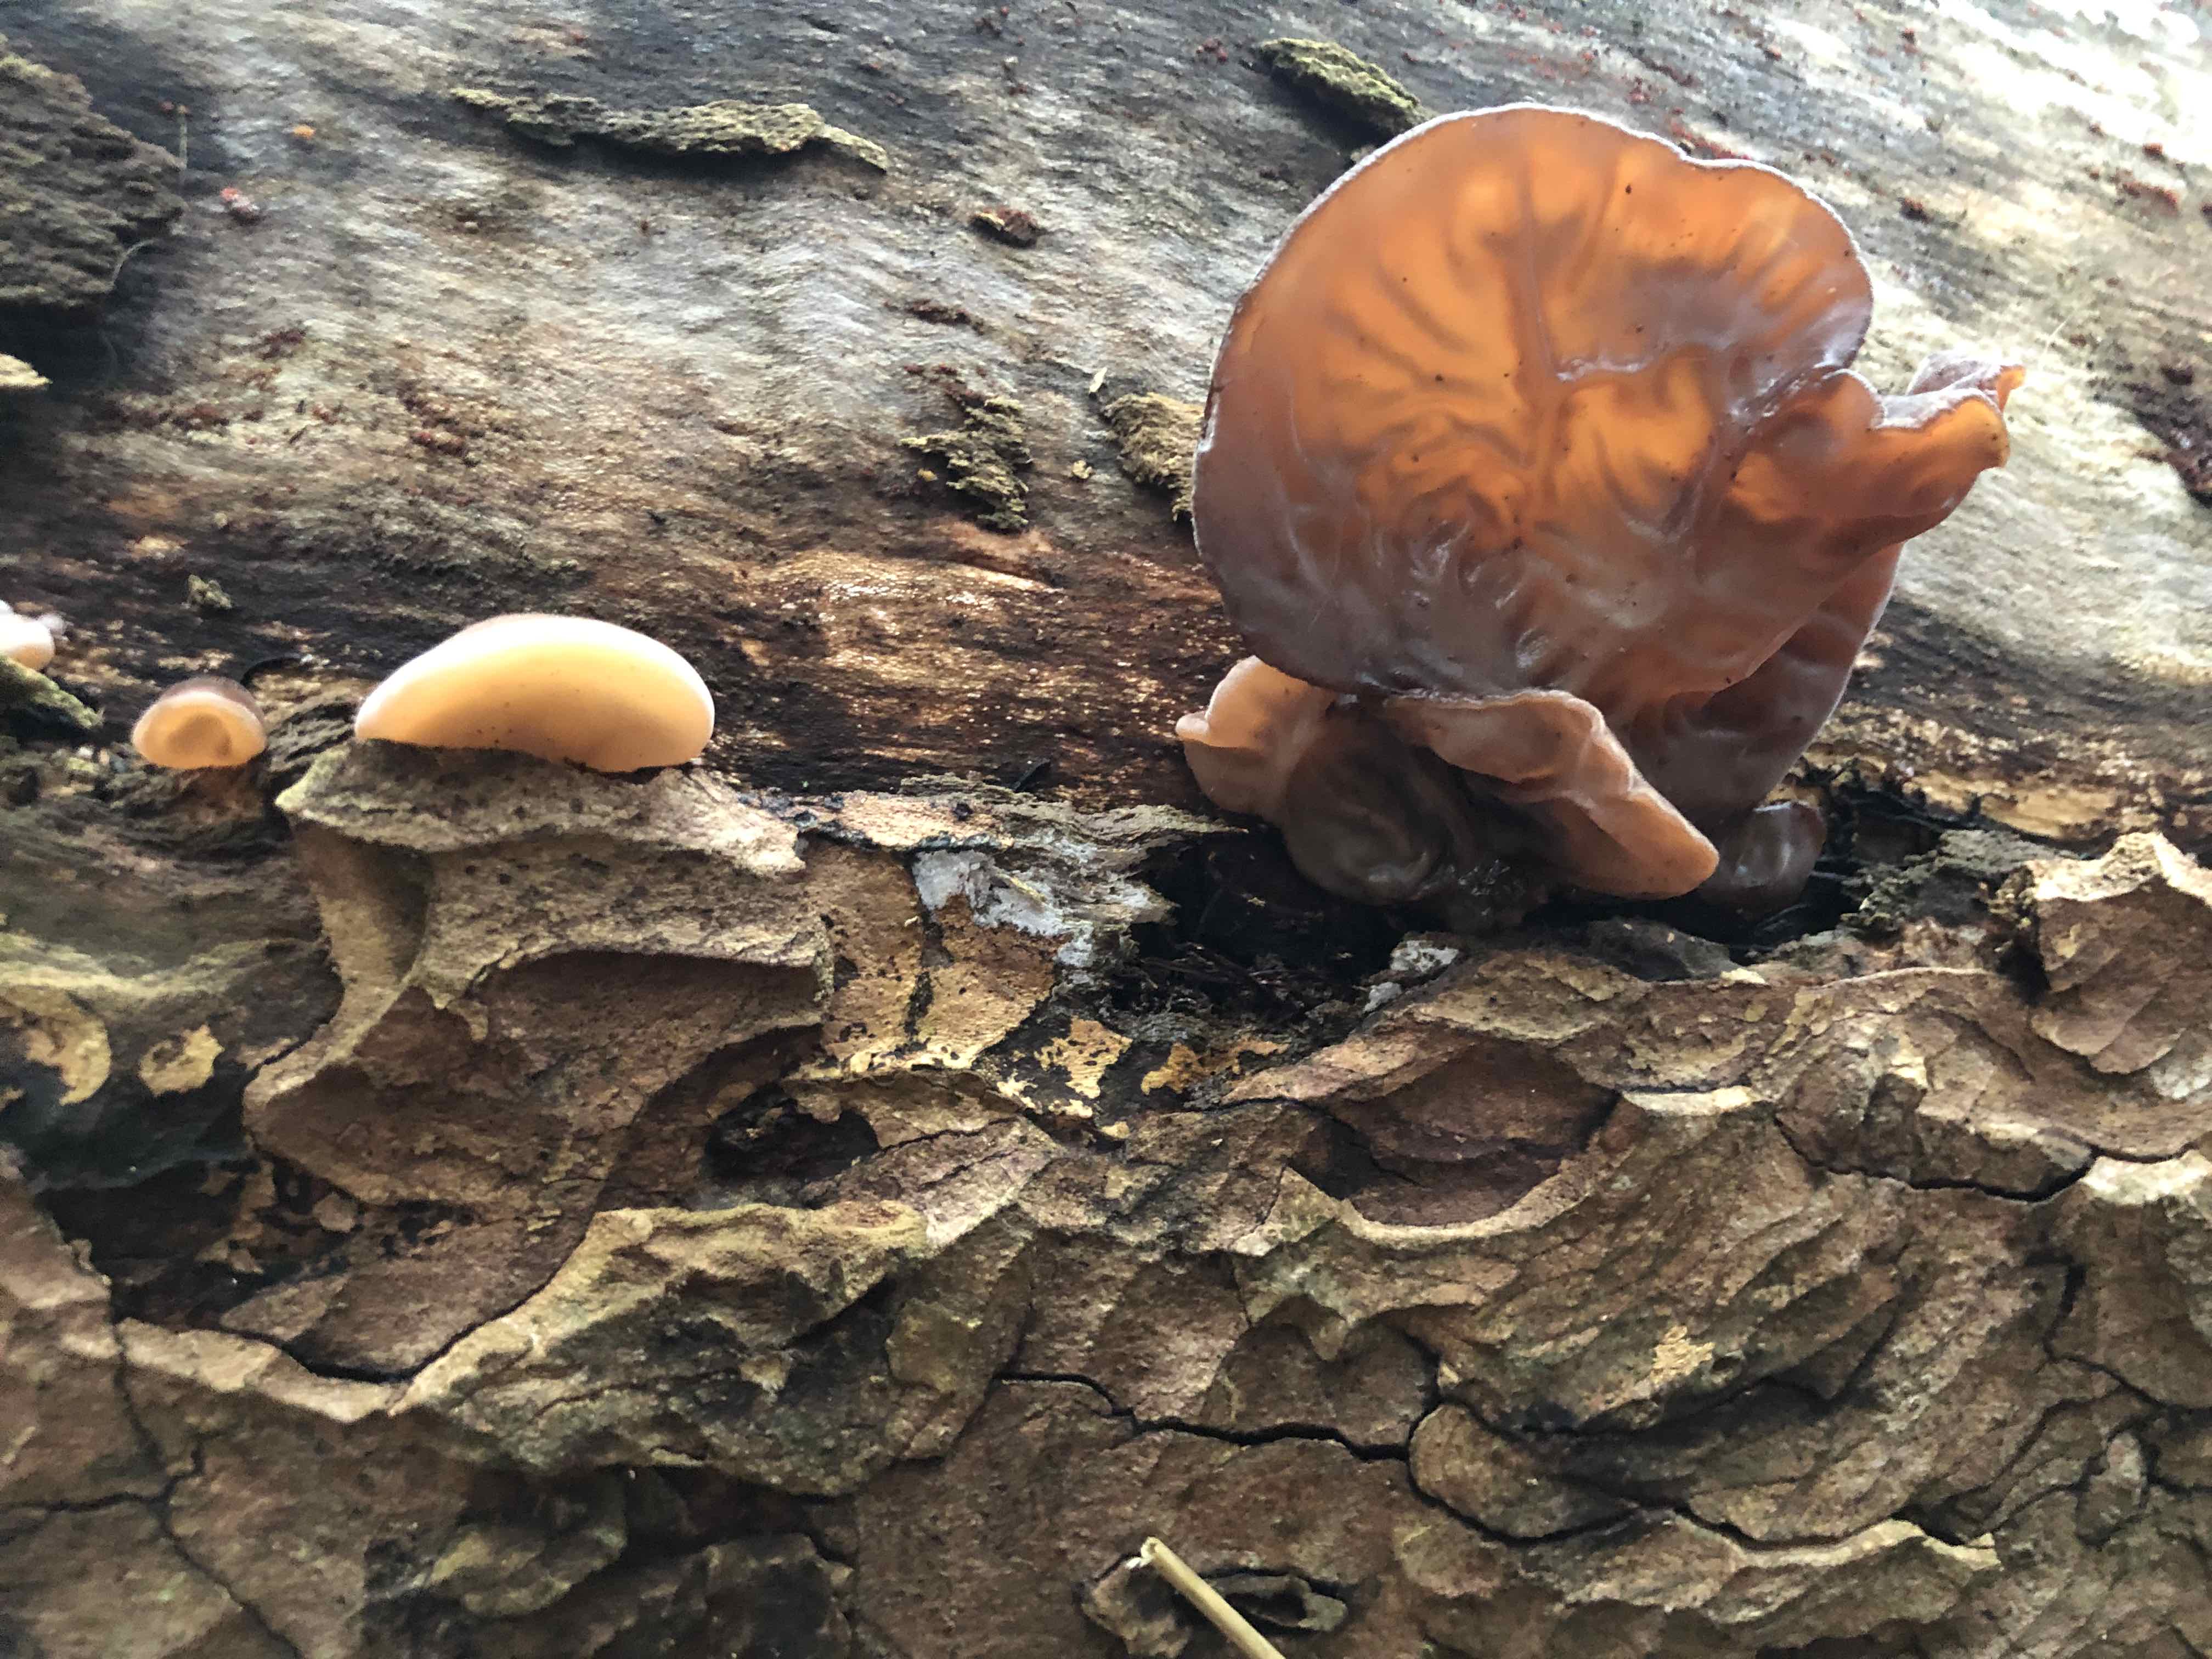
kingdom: Fungi
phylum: Basidiomycota
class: Agaricomycetes
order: Auriculariales
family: Auriculariaceae
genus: Auricularia
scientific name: Auricularia auricula-judae
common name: almindelig judasøre
